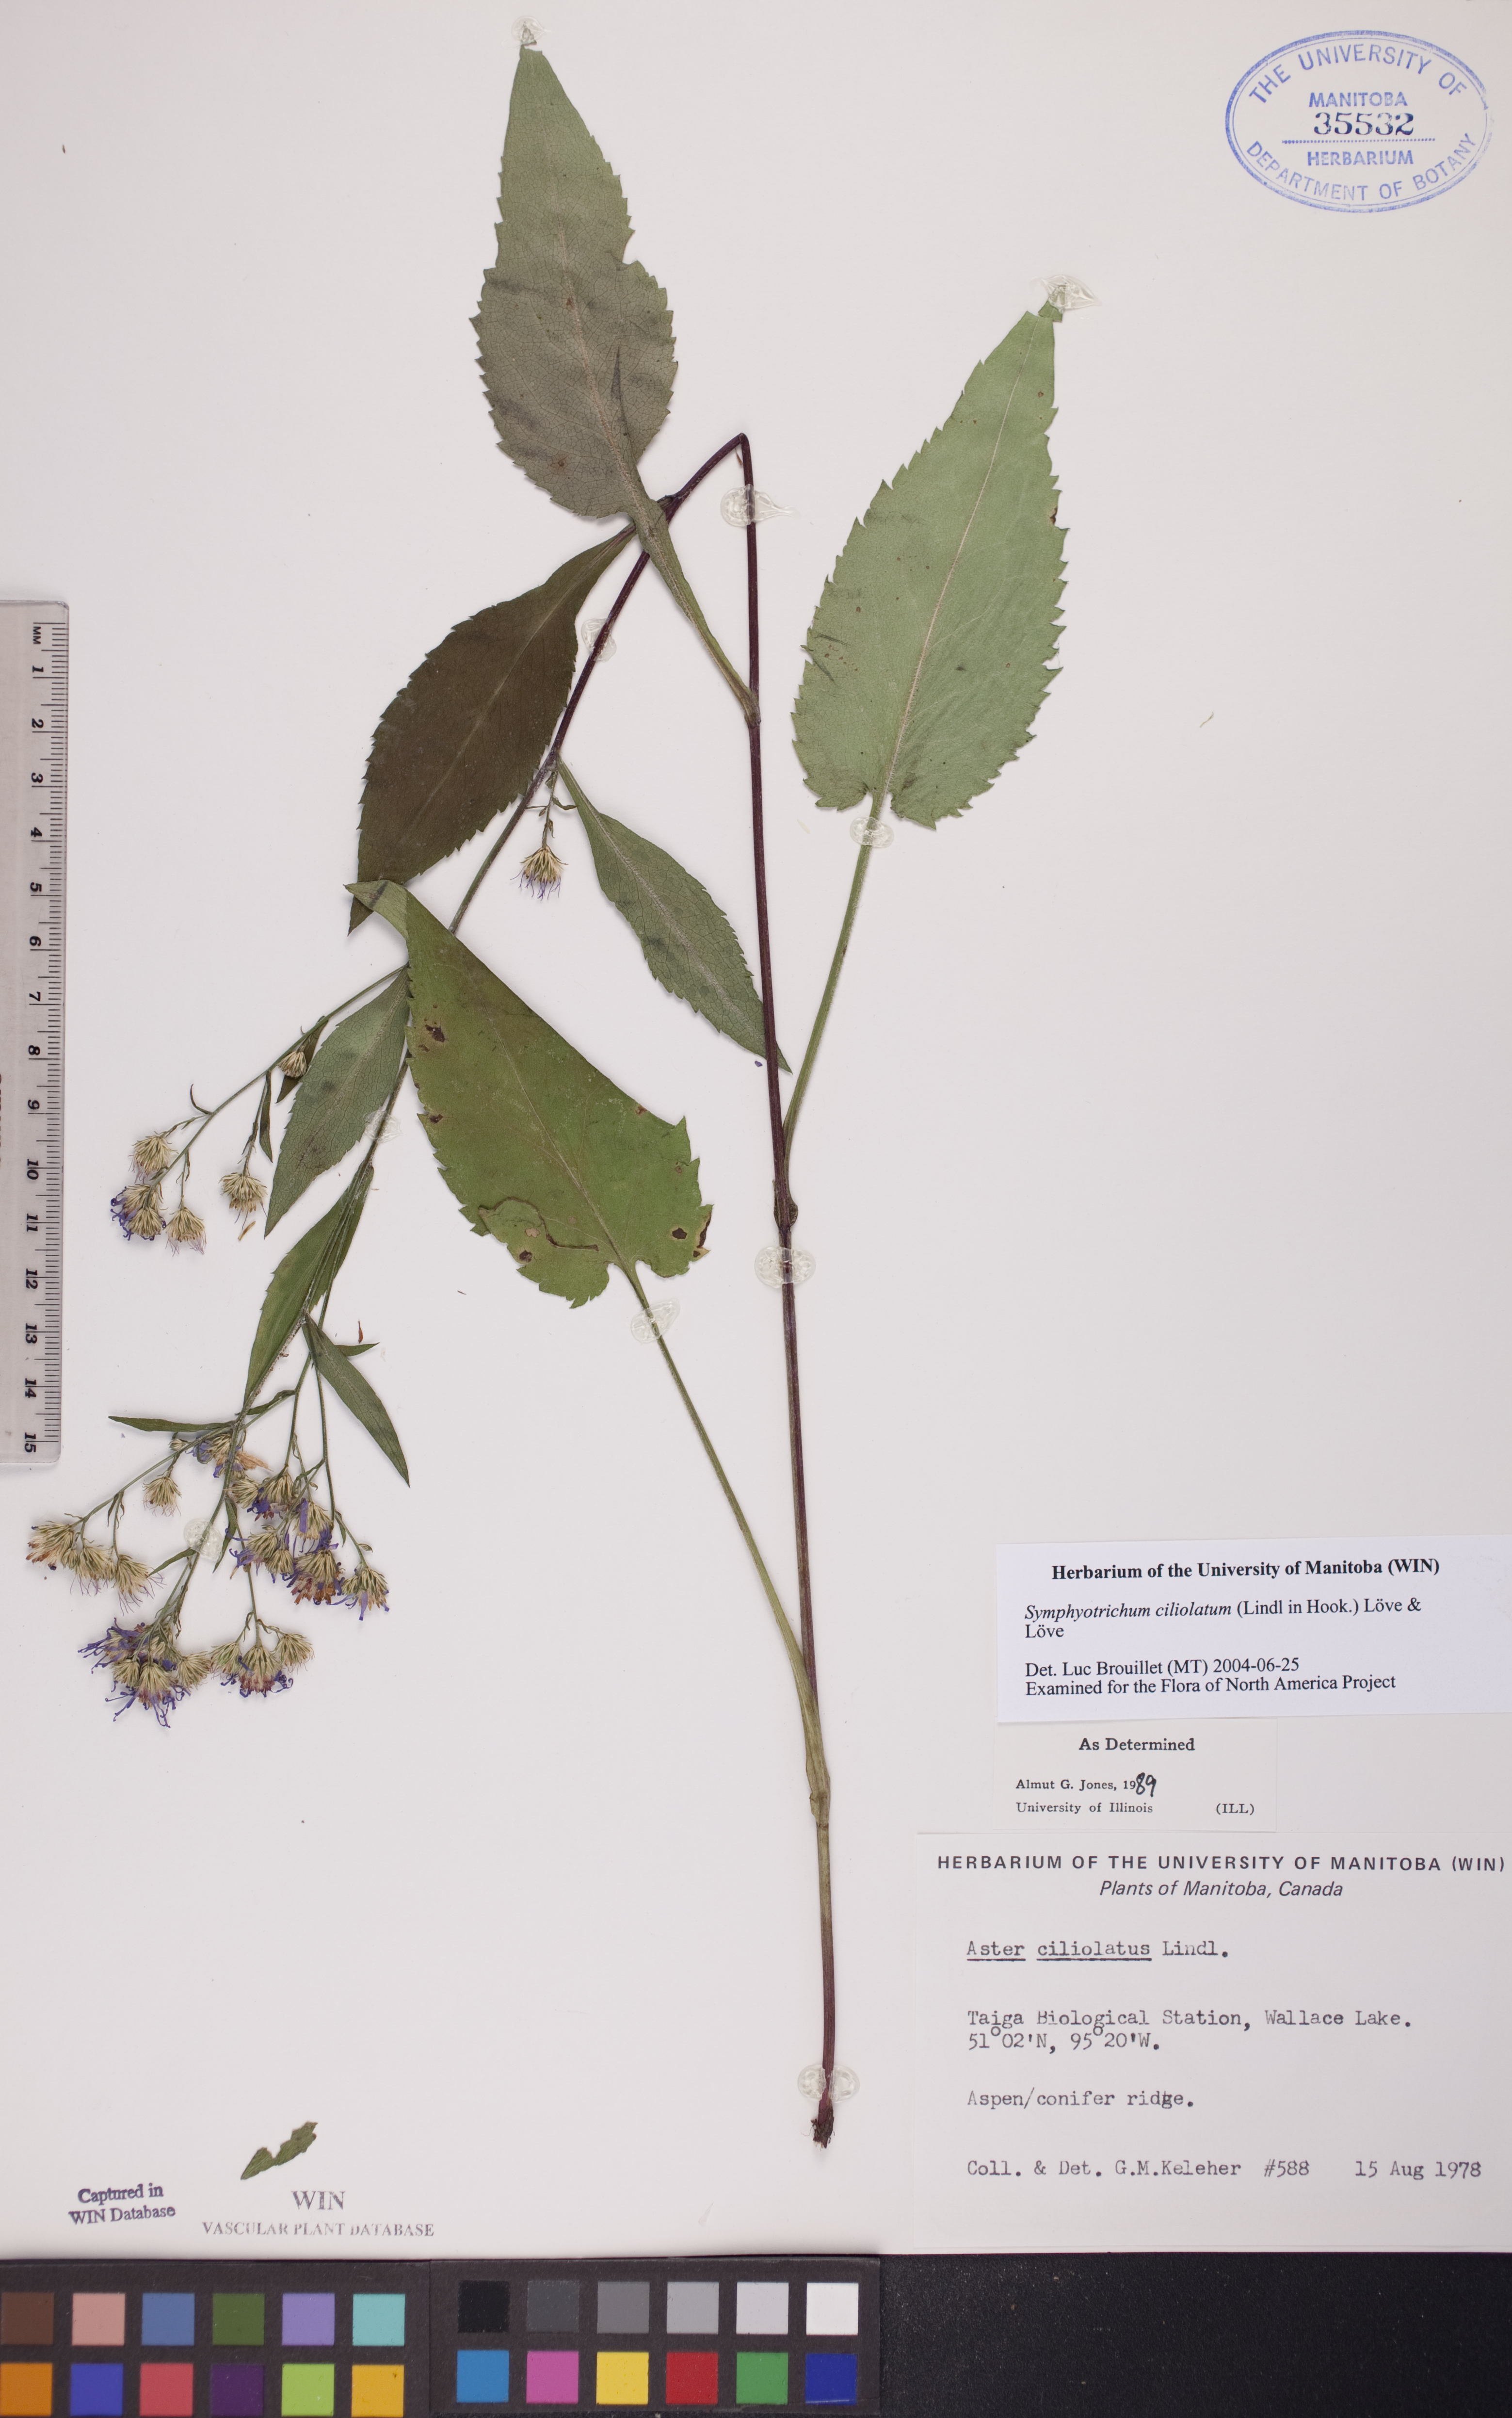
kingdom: Plantae
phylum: Tracheophyta
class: Magnoliopsida
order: Asterales
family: Asteraceae
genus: Symphyotrichum
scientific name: Symphyotrichum ciliolatum
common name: Fringed blue aster
